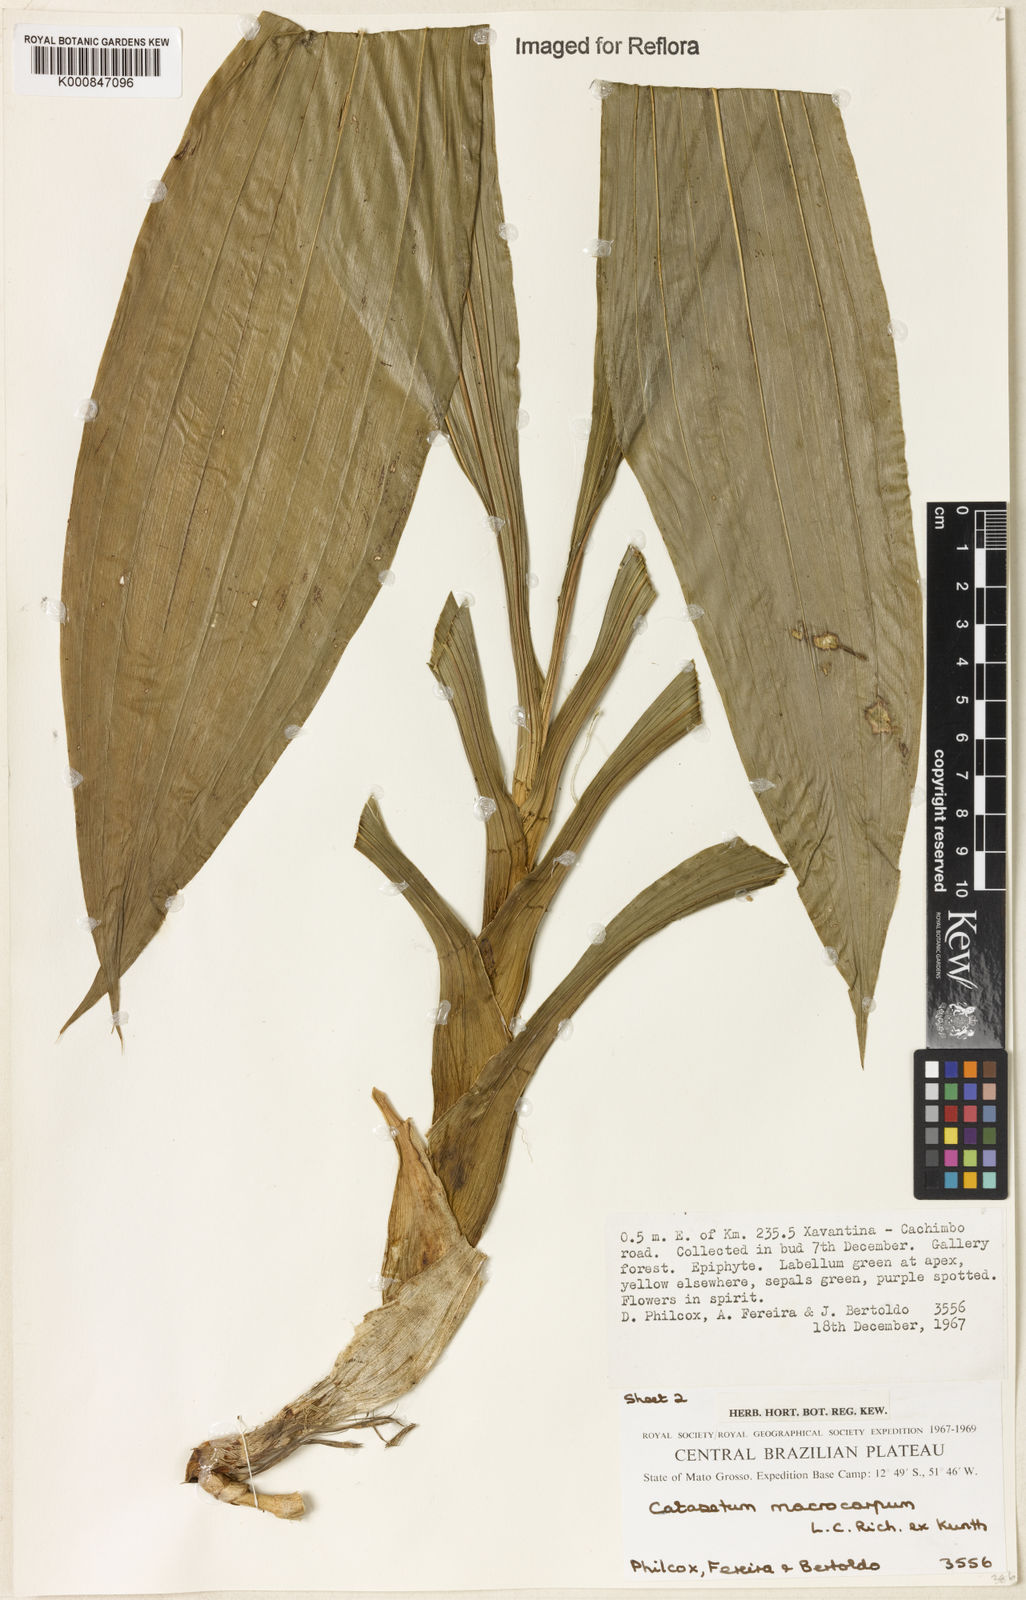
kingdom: Plantae
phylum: Tracheophyta
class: Liliopsida
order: Asparagales
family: Orchidaceae
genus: Catasetum
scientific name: Catasetum macrocarpum
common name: Jumping orchid
